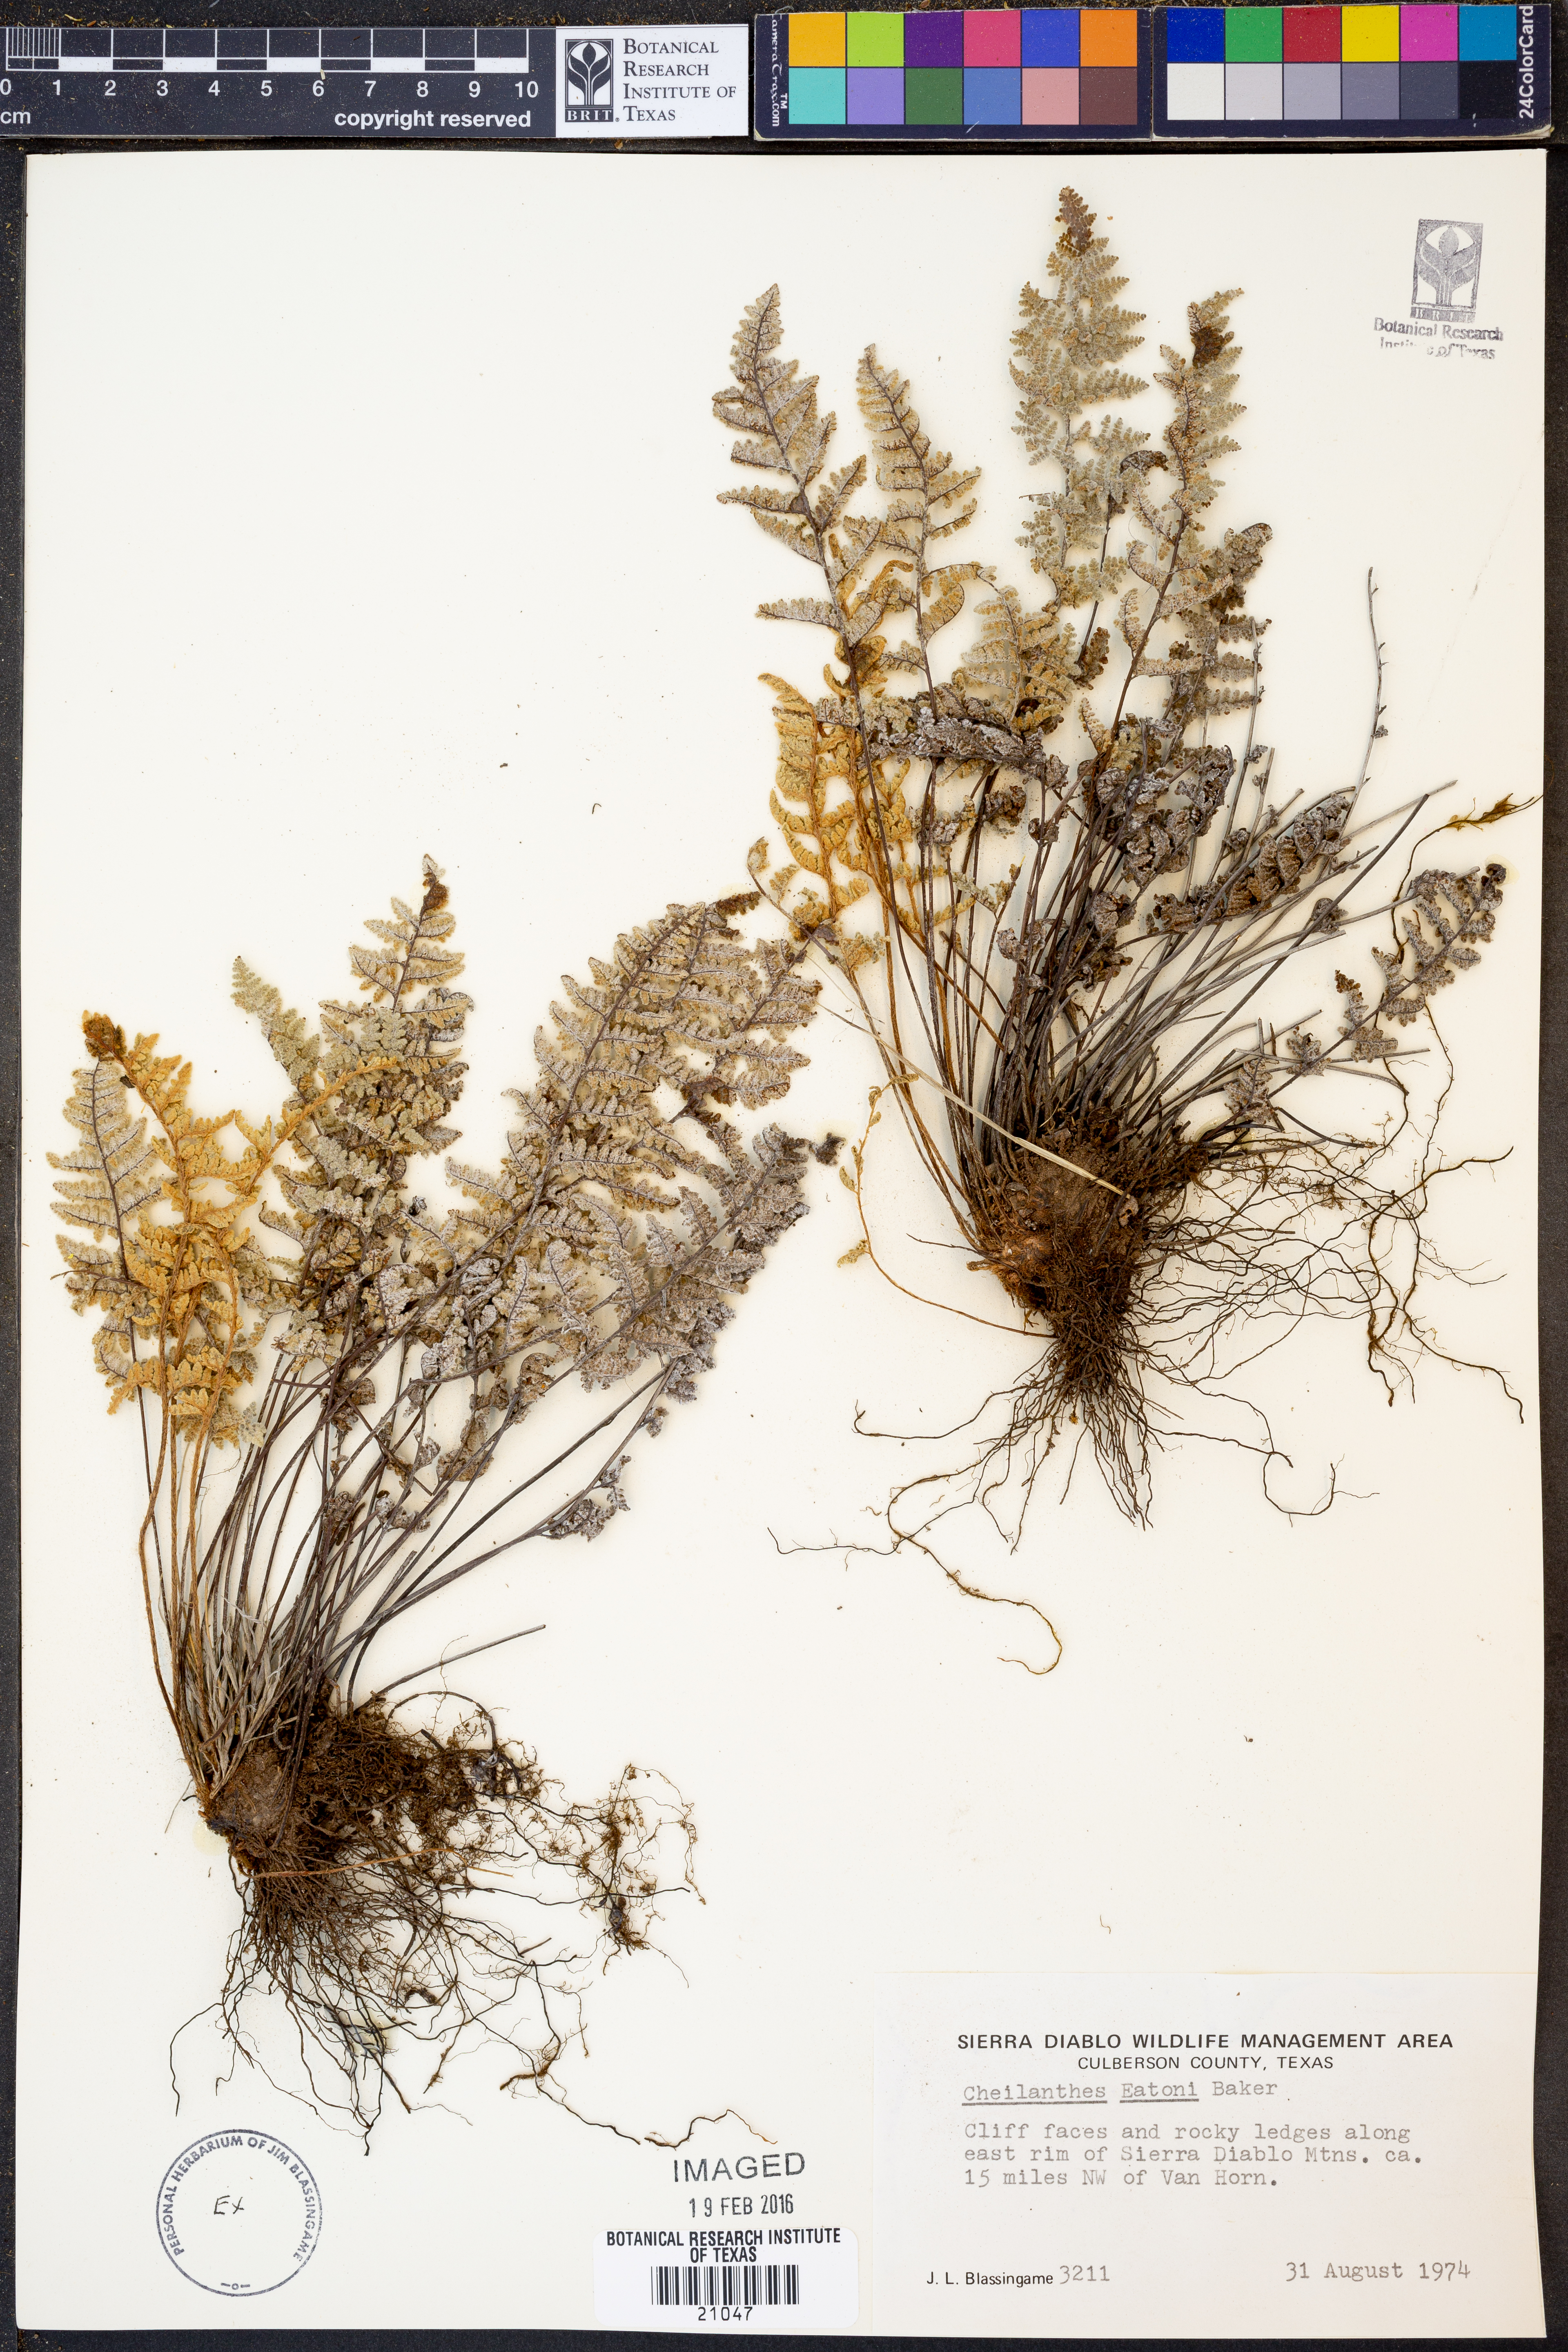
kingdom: Plantae
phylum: Tracheophyta
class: Polypodiopsida
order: Polypodiales
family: Pteridaceae
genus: Myriopteris
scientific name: Myriopteris rufa
